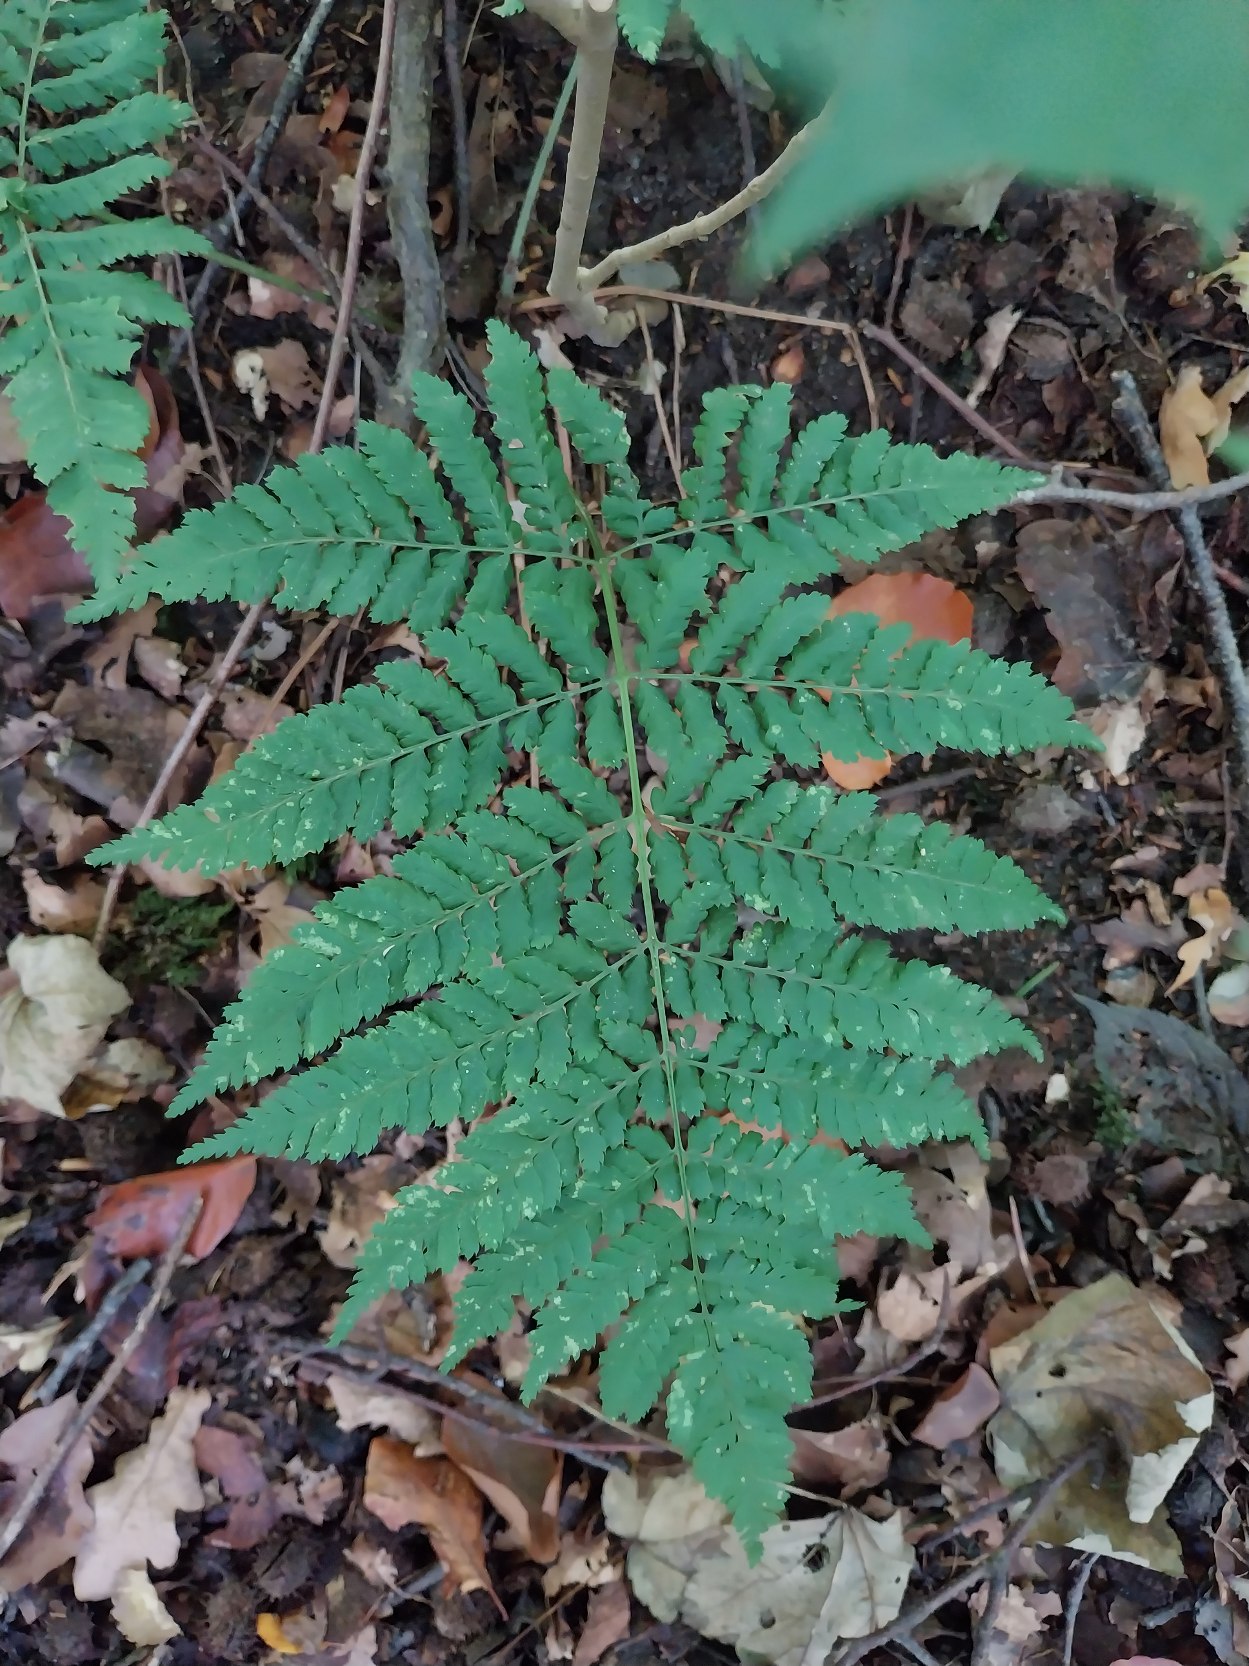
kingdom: Plantae
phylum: Tracheophyta
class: Polypodiopsida
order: Polypodiales
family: Dryopteridaceae
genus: Dryopteris
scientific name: Dryopteris dilatata
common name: Bredbladet mangeløv
